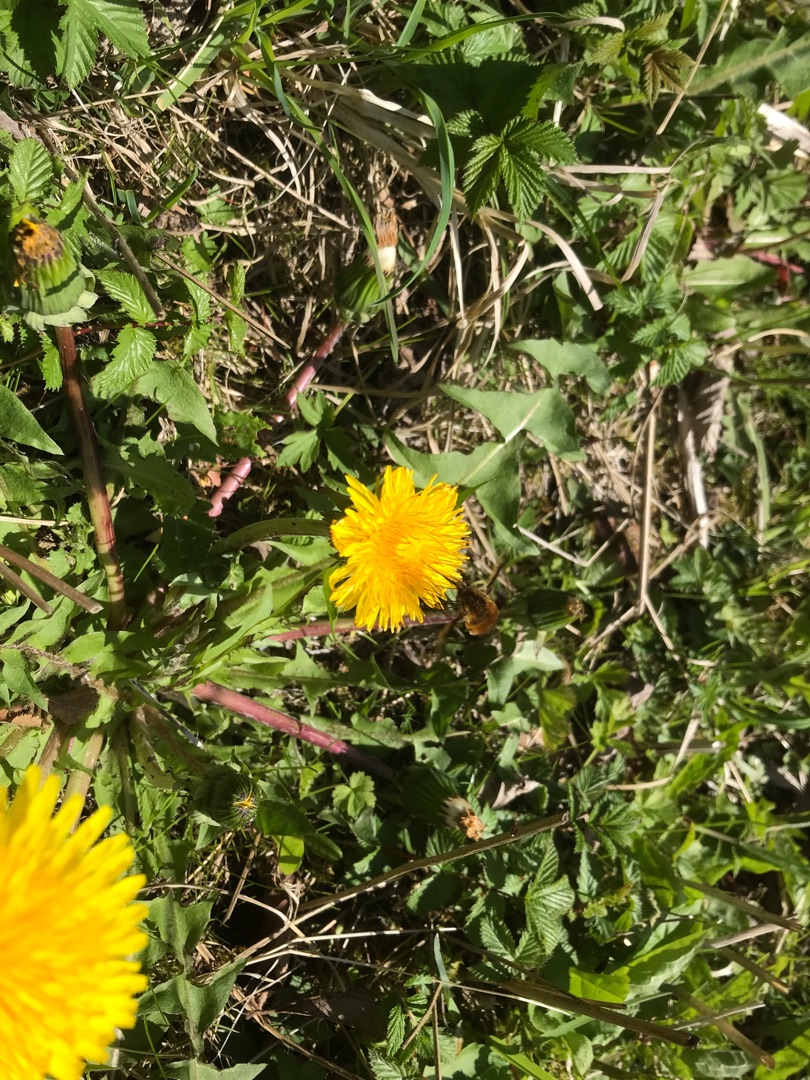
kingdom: Animalia
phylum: Arthropoda
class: Insecta
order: Diptera
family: Bombyliidae
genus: Bombylius
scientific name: Bombylius major
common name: Stor humleflue
